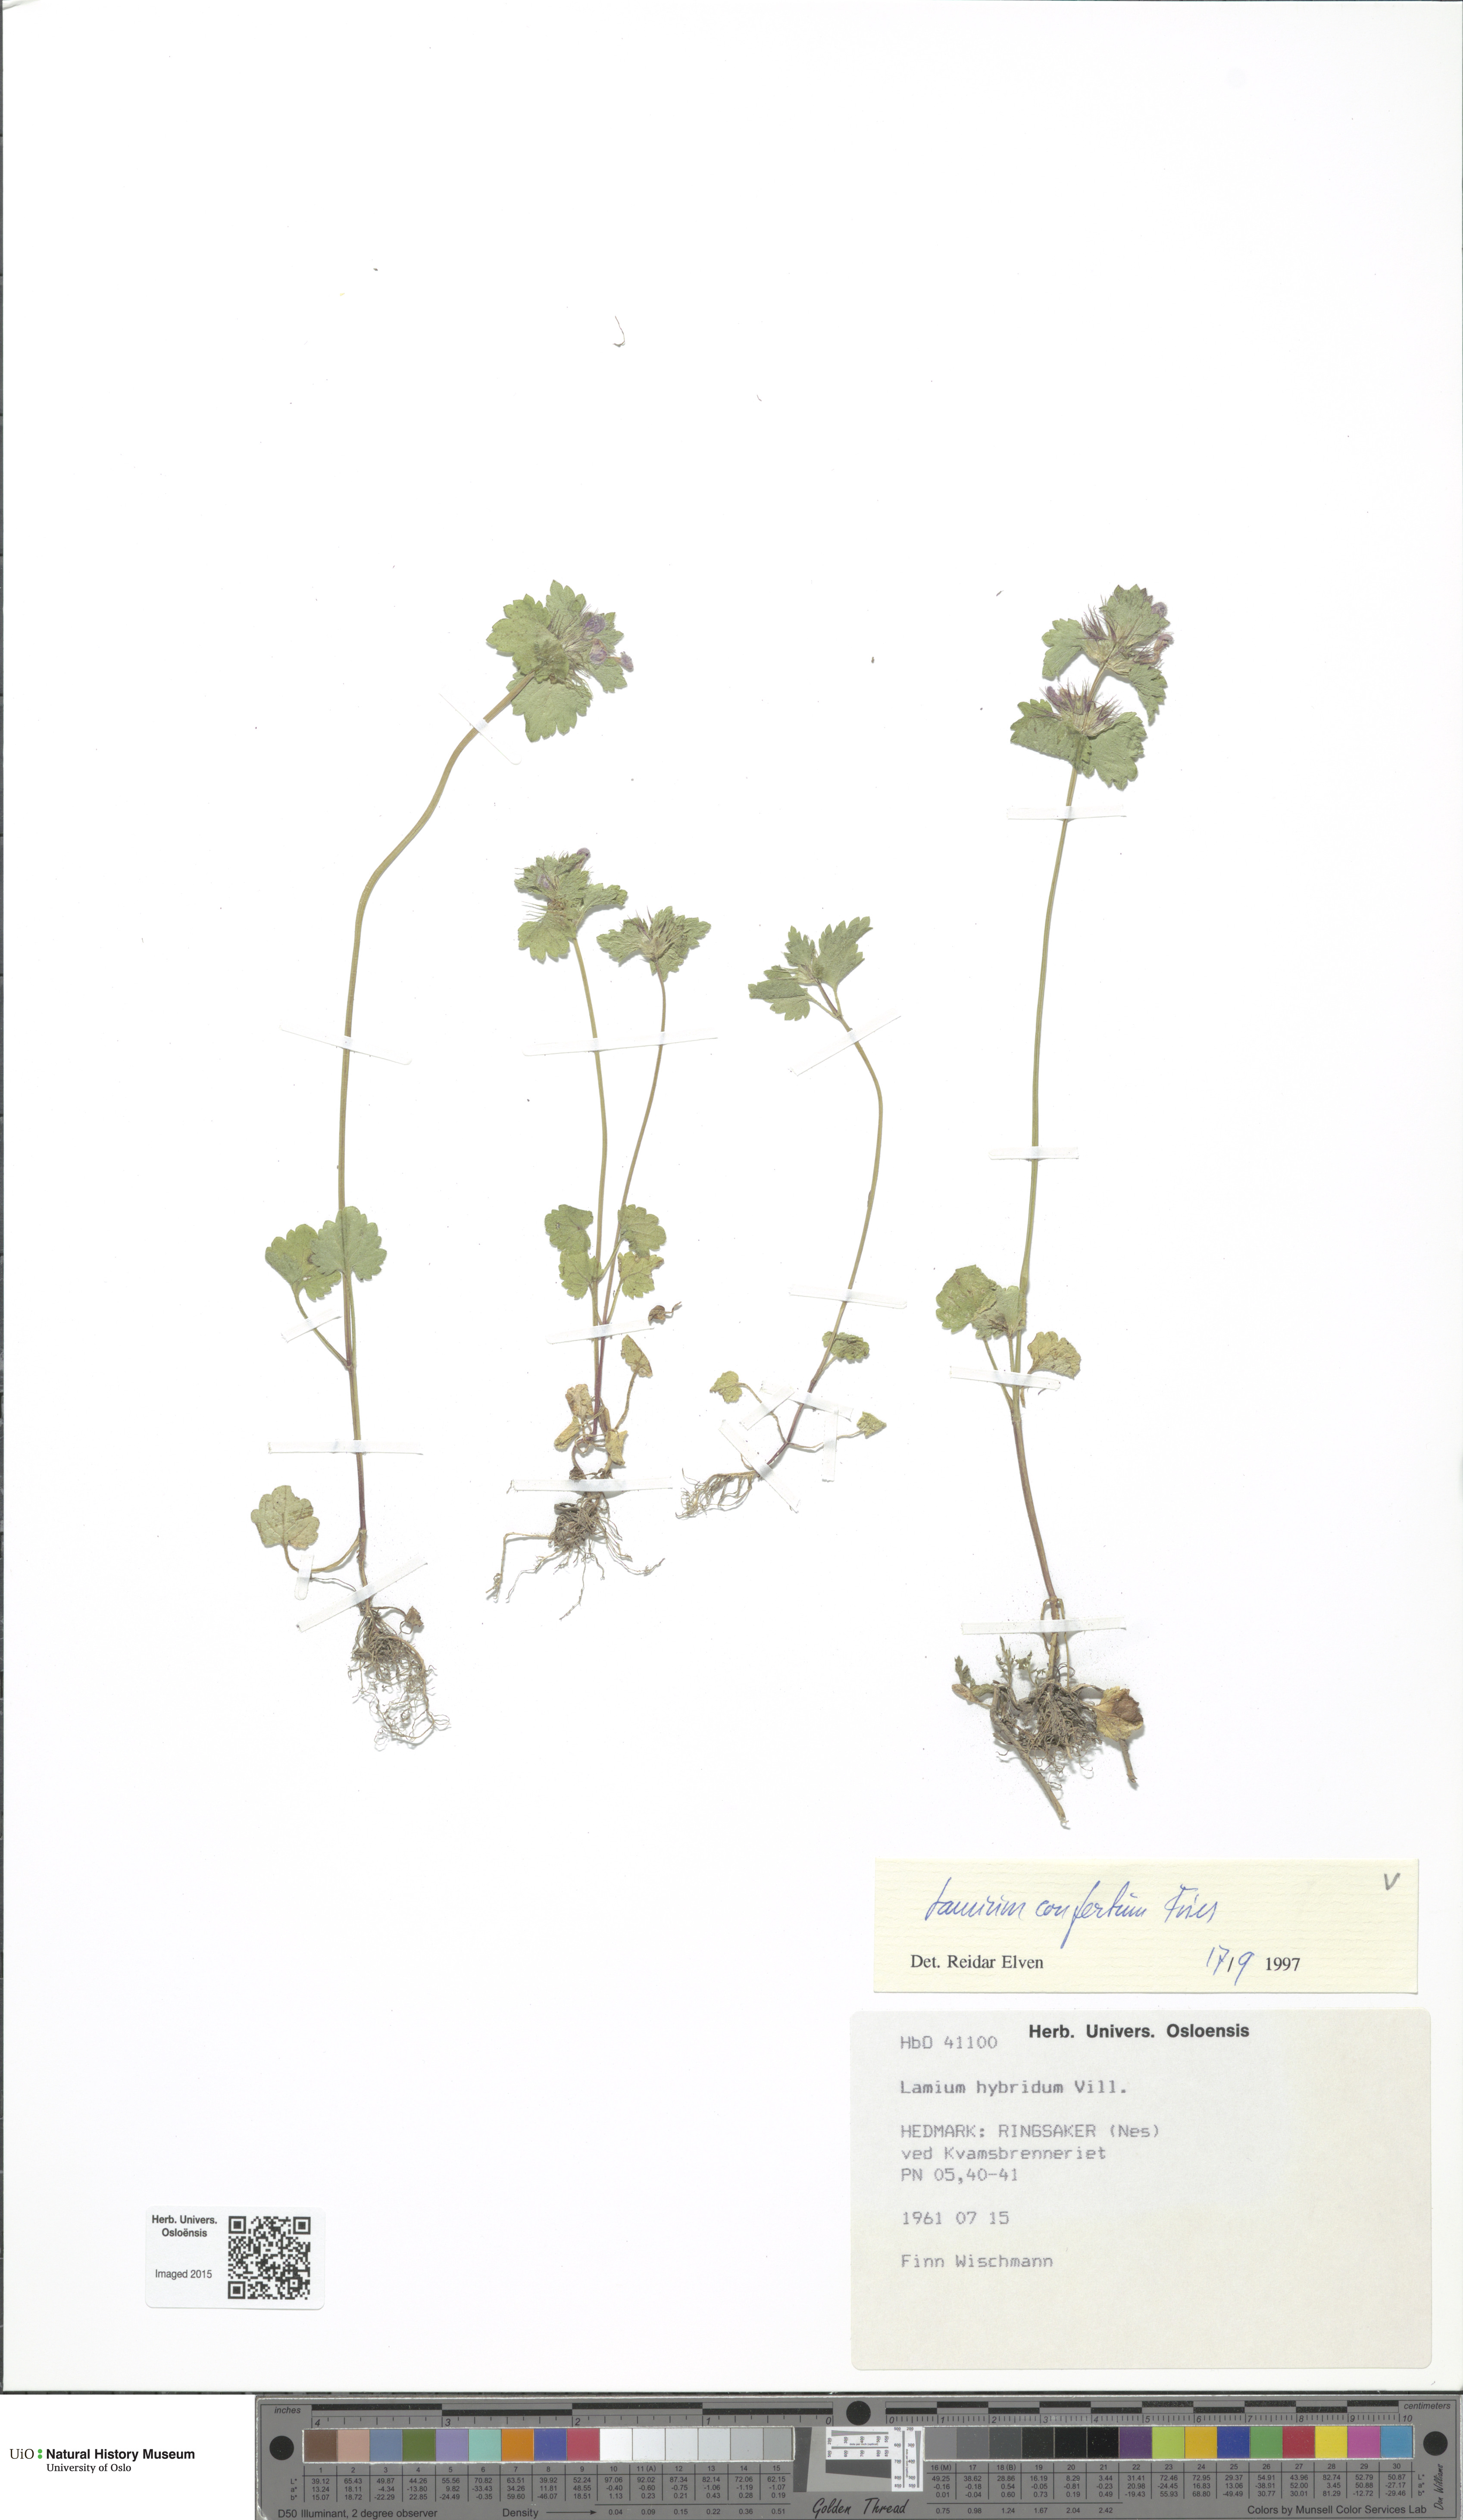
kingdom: Plantae
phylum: Tracheophyta
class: Magnoliopsida
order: Lamiales
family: Lamiaceae
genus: Lamium
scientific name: Lamium confertum
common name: Northern dead-nettle
